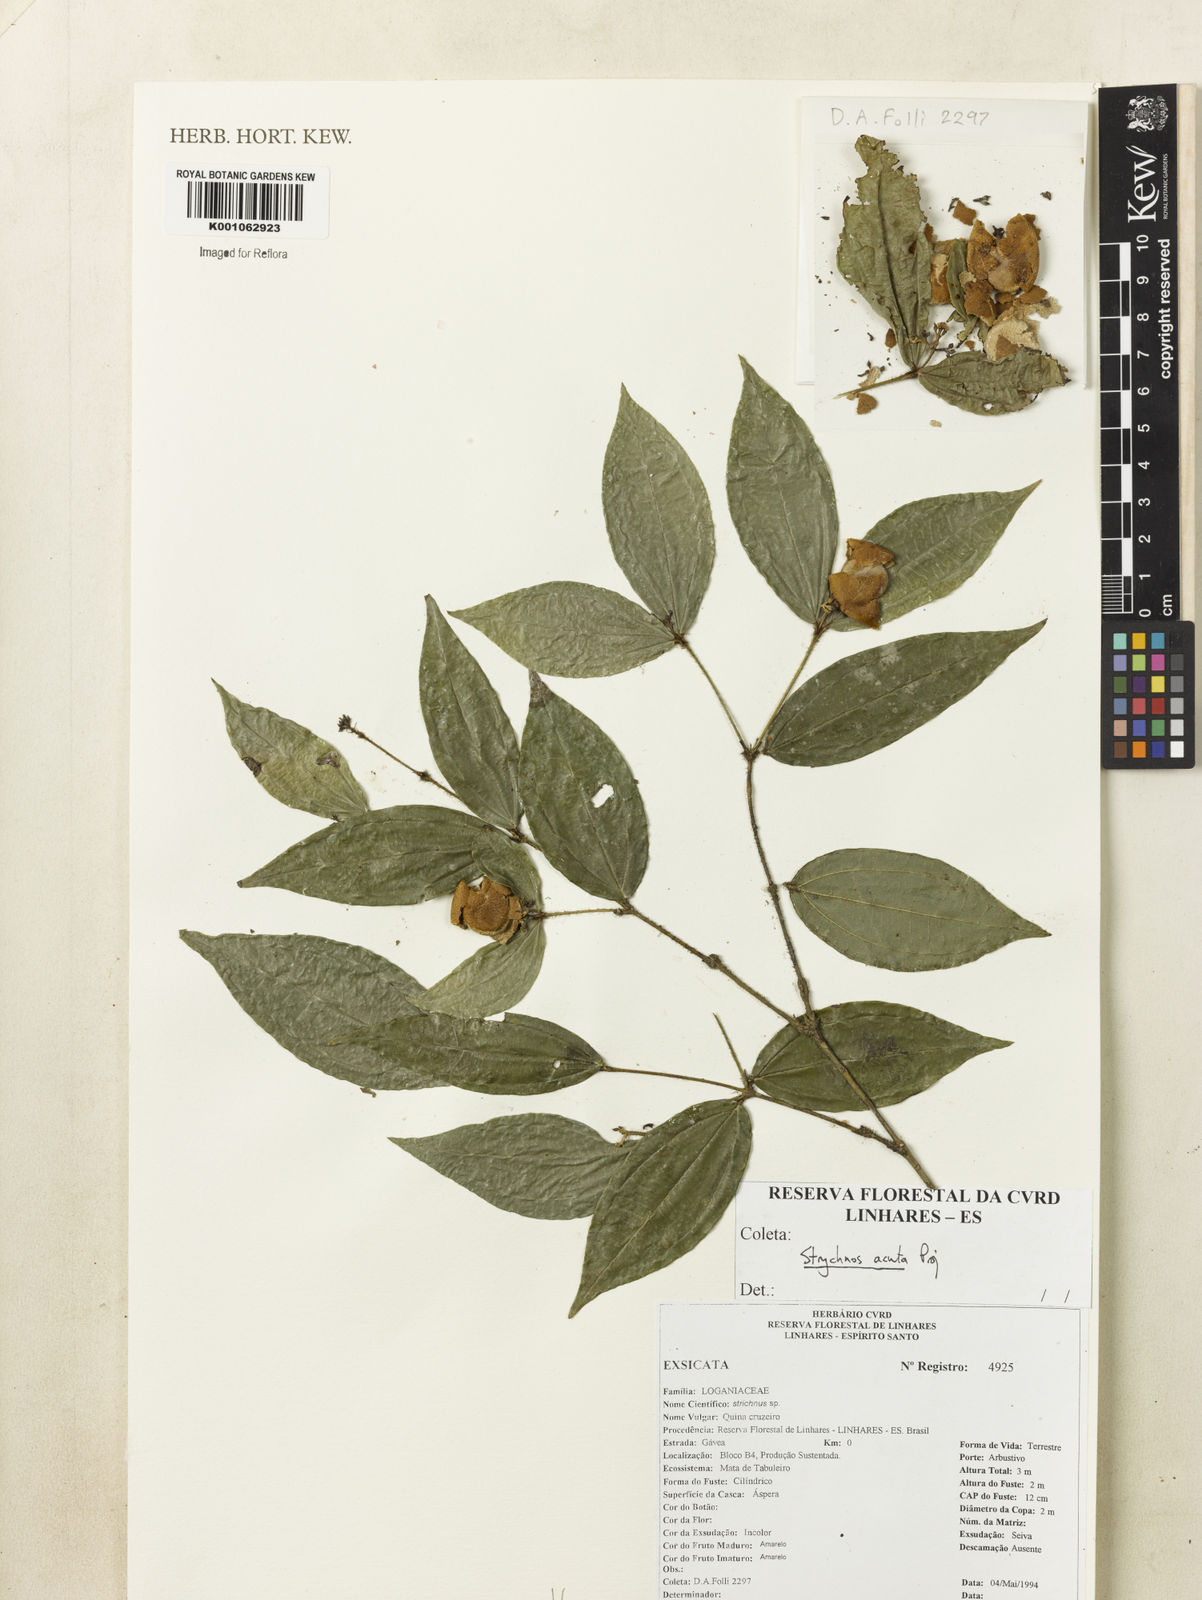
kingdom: Plantae
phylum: Tracheophyta
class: Magnoliopsida
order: Gentianales
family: Loganiaceae
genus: Strychnos
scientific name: Strychnos acuta
